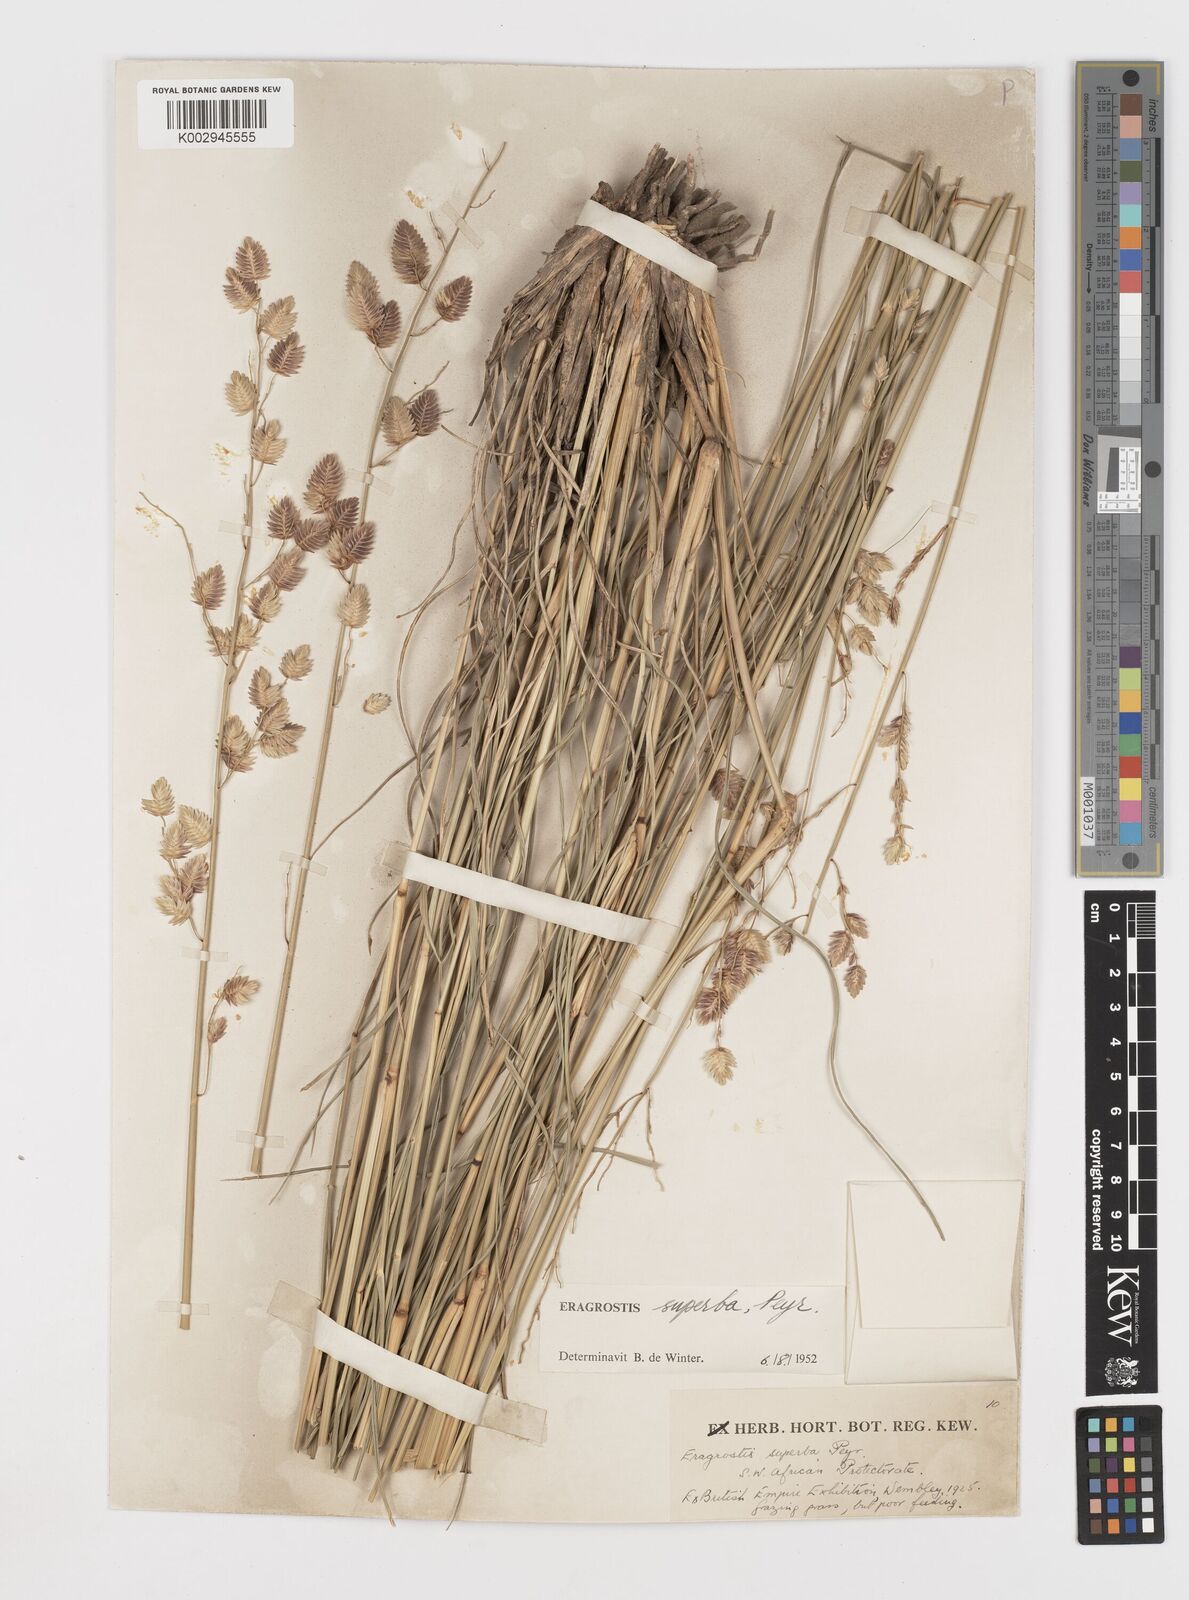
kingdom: Plantae
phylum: Tracheophyta
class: Liliopsida
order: Poales
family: Poaceae
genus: Eragrostis
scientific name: Eragrostis superba
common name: Wilman lovegrass
